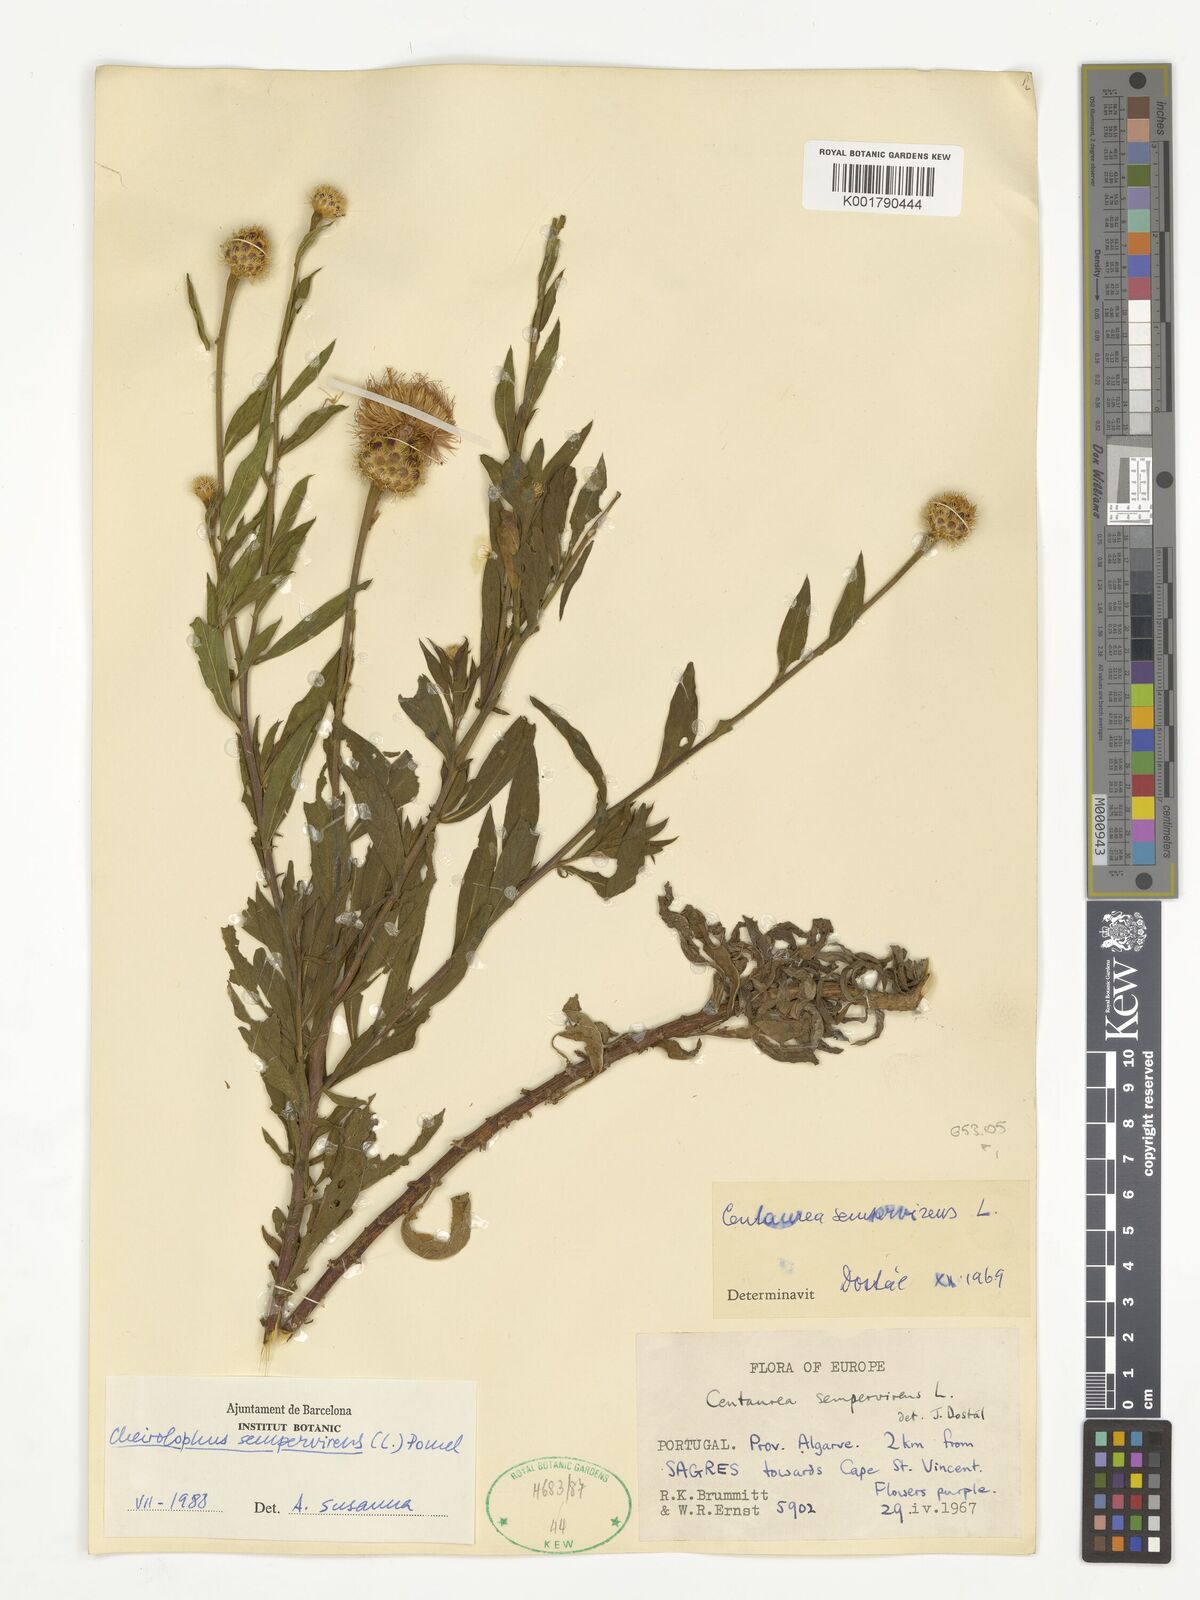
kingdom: Plantae
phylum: Tracheophyta
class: Magnoliopsida
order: Asterales
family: Asteraceae
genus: Cheirolophus
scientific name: Cheirolophus sempervirens
